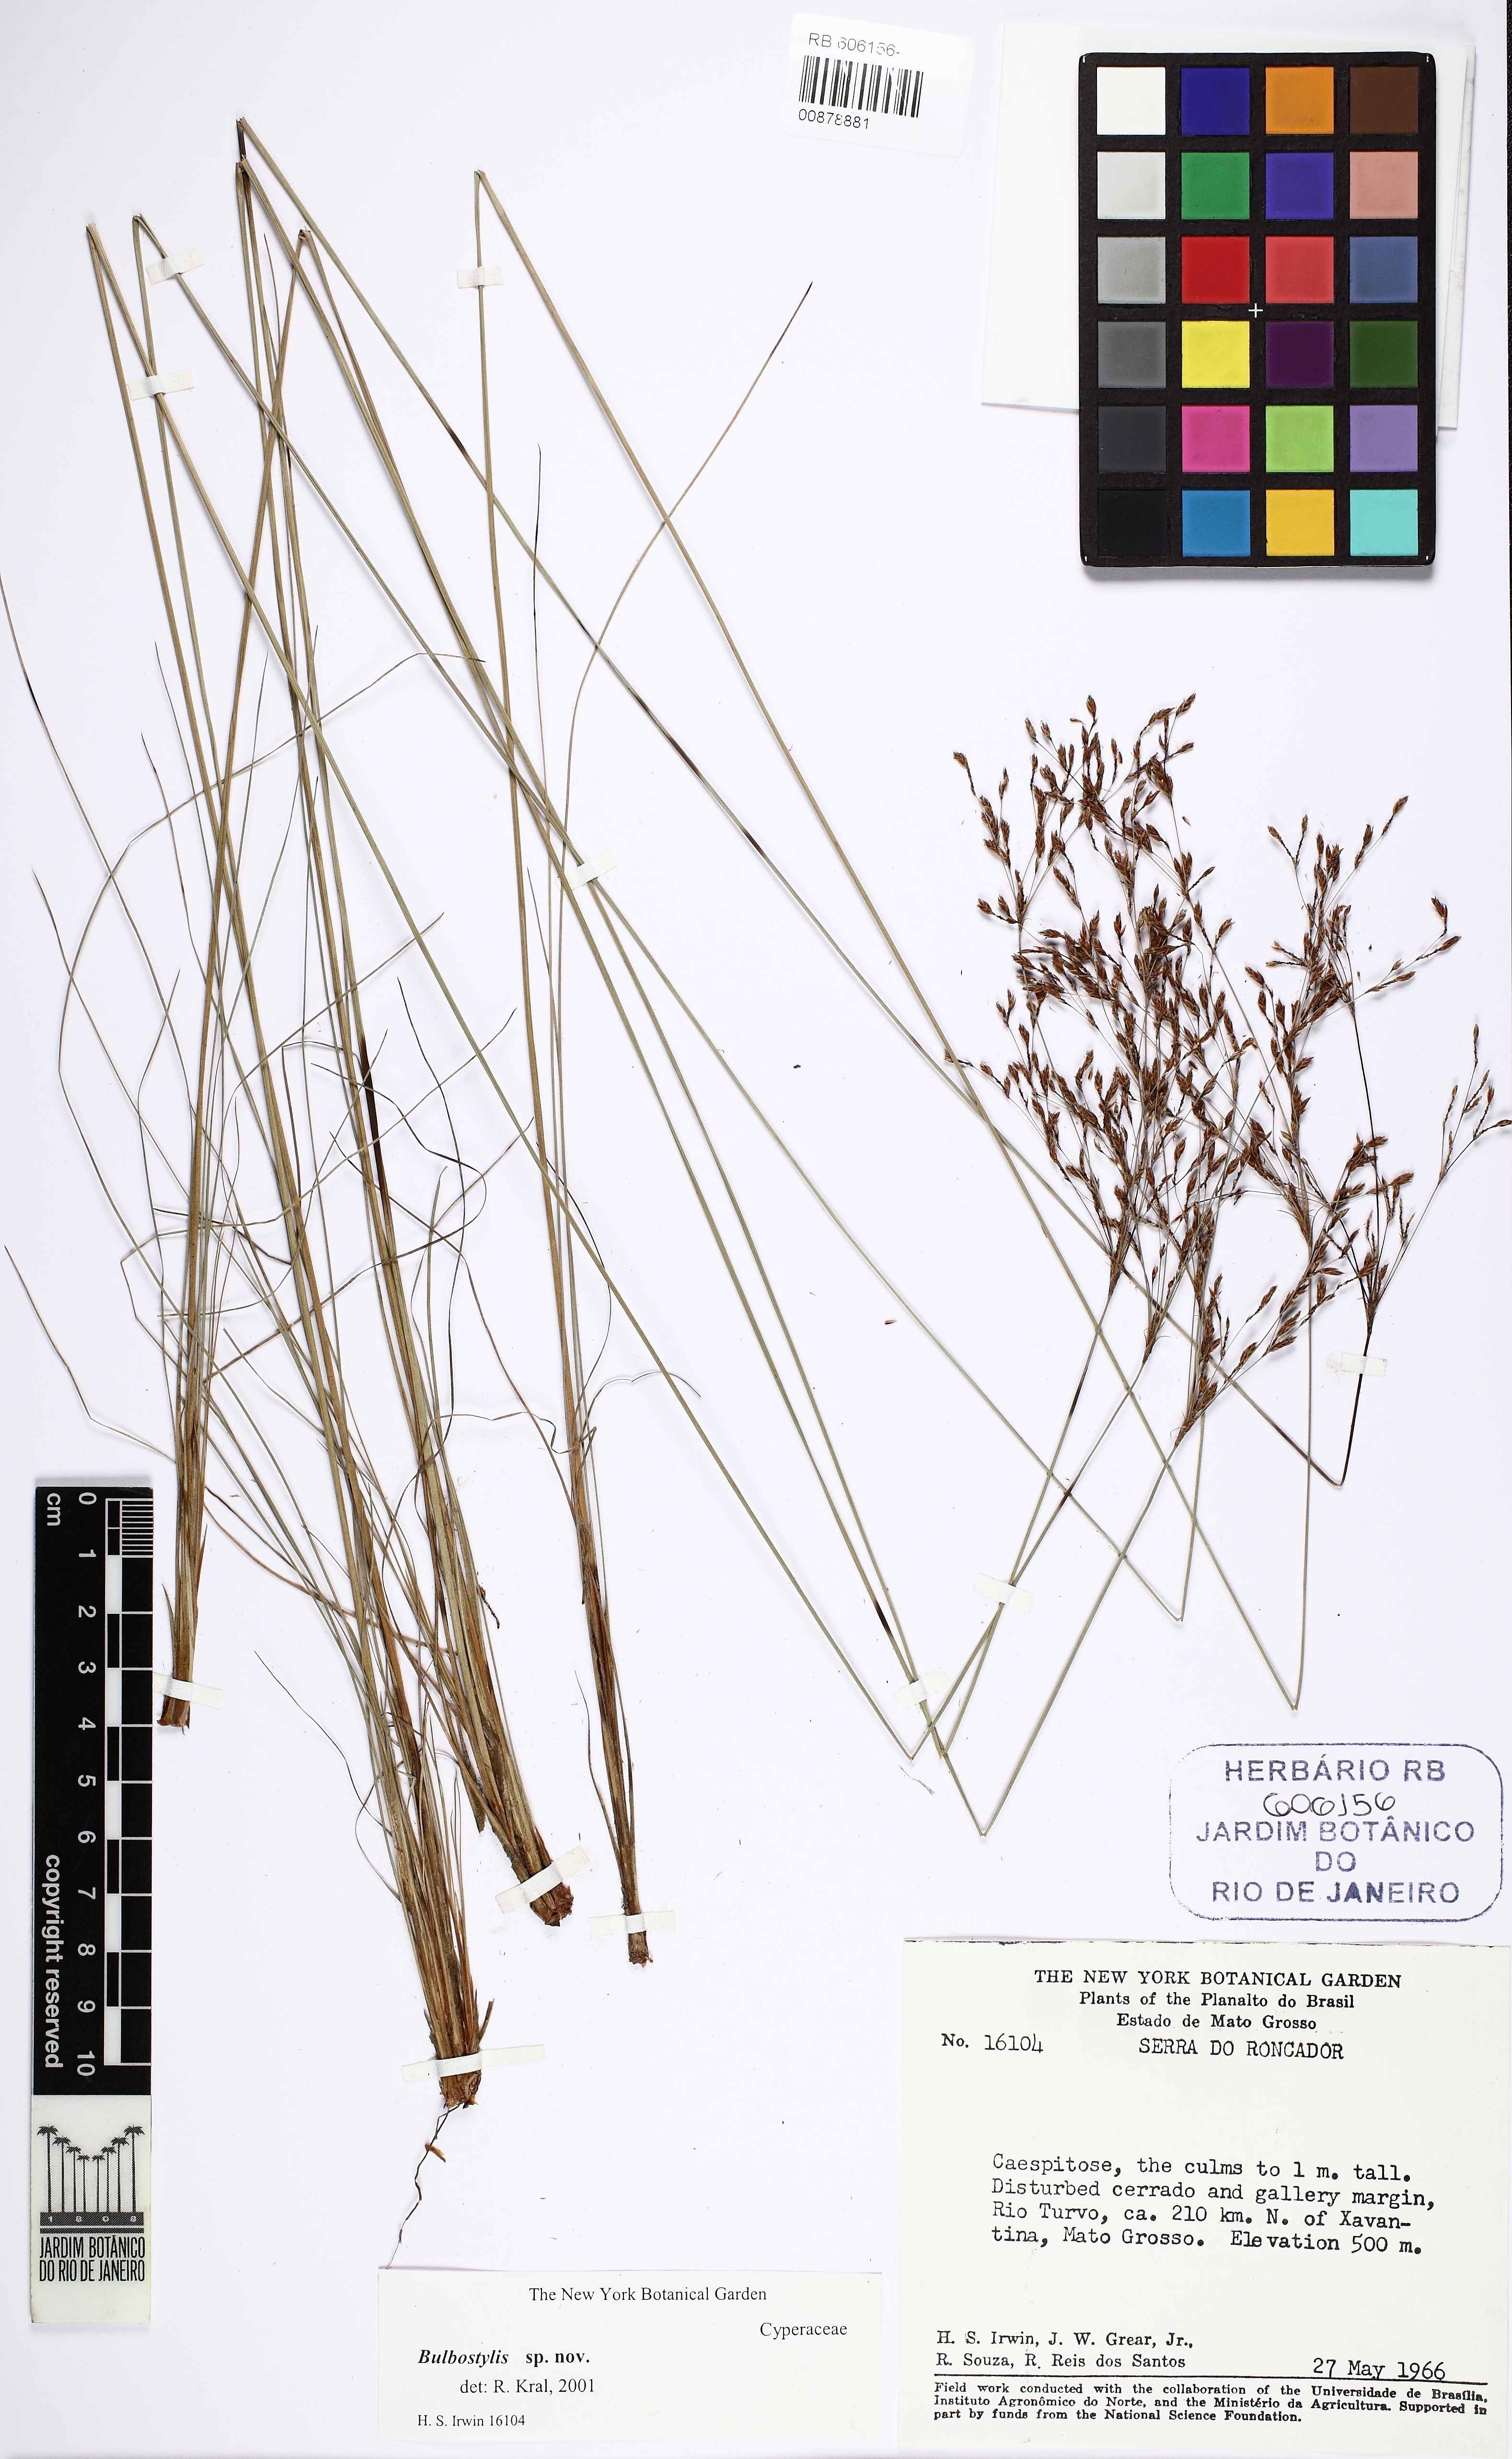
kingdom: Plantae
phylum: Tracheophyta
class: Liliopsida
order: Poales
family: Cyperaceae
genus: Bulbostylis
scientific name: Bulbostylis
